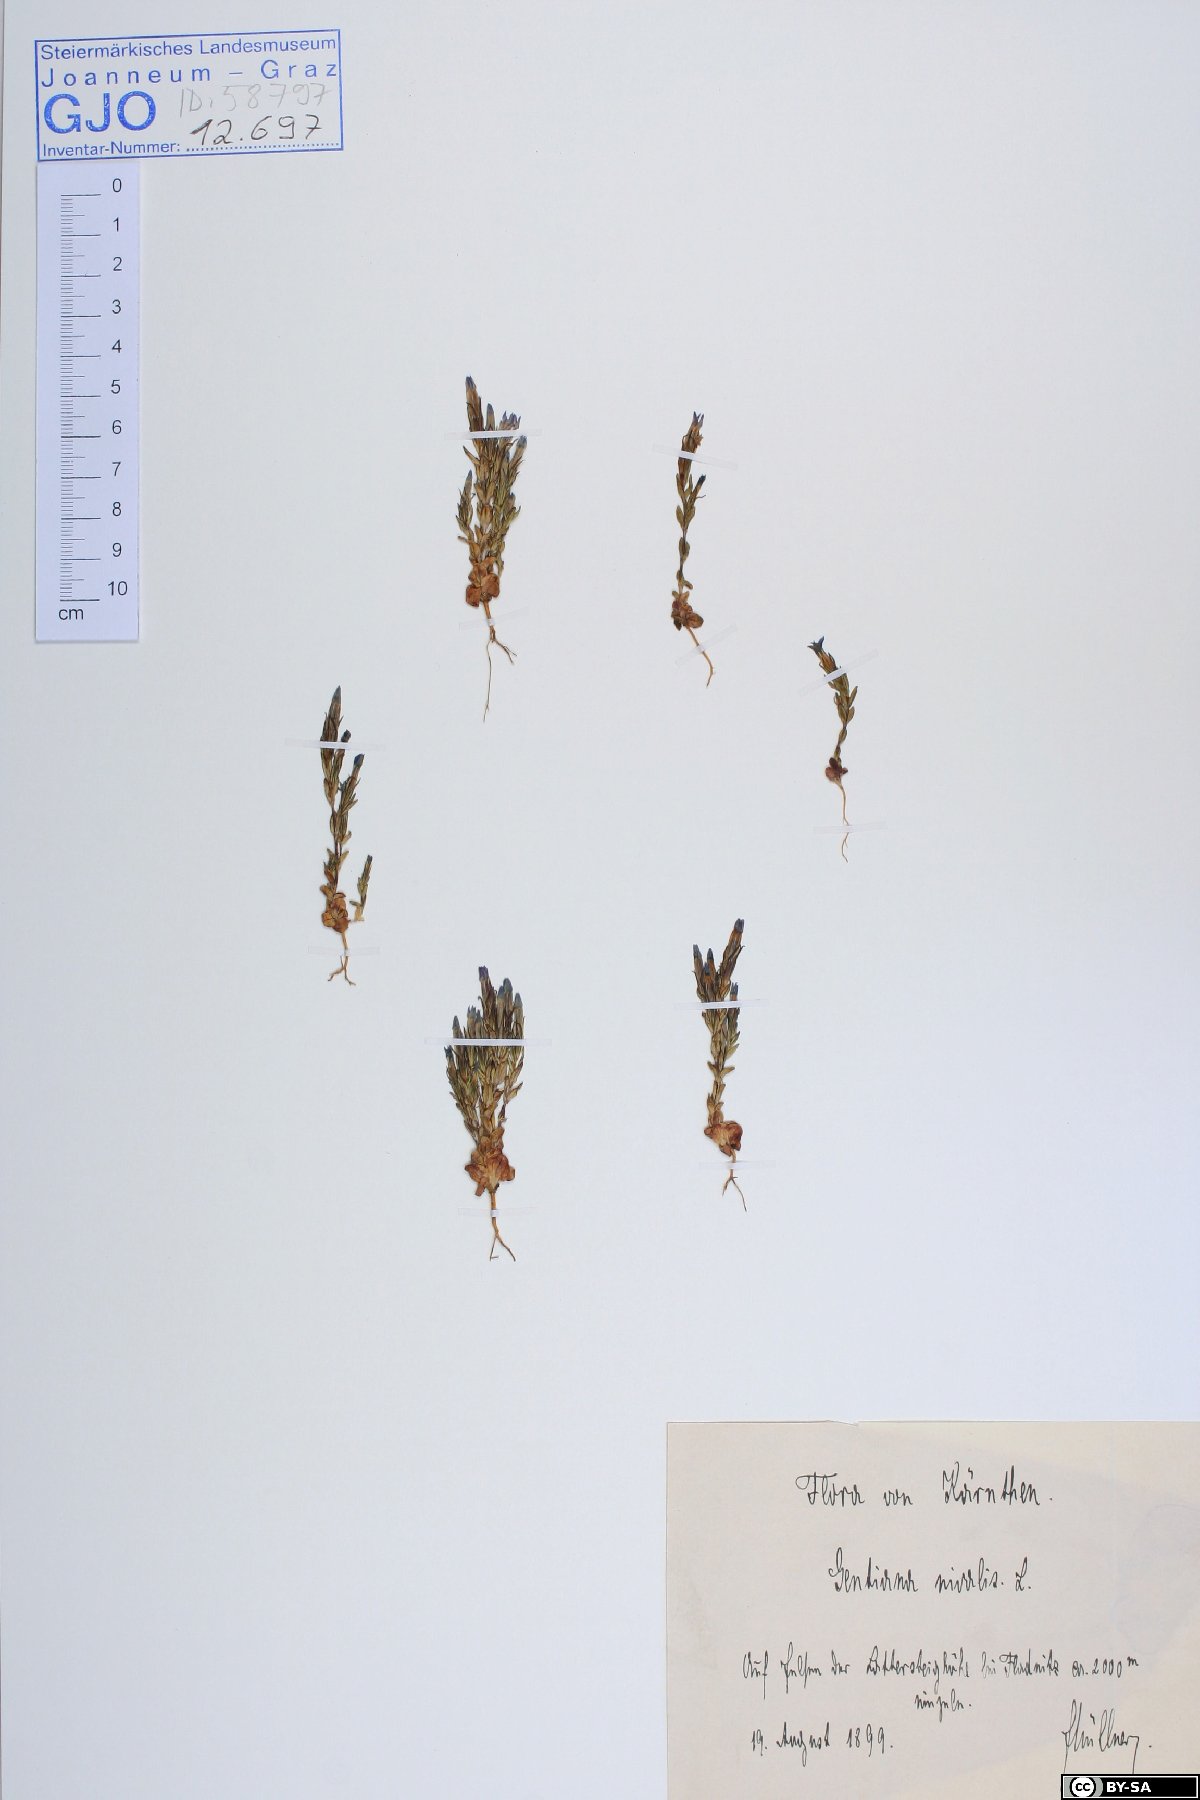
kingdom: Plantae
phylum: Tracheophyta
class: Magnoliopsida
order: Gentianales
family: Gentianaceae
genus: Gentiana
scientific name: Gentiana nivalis
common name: Alpine gentian
